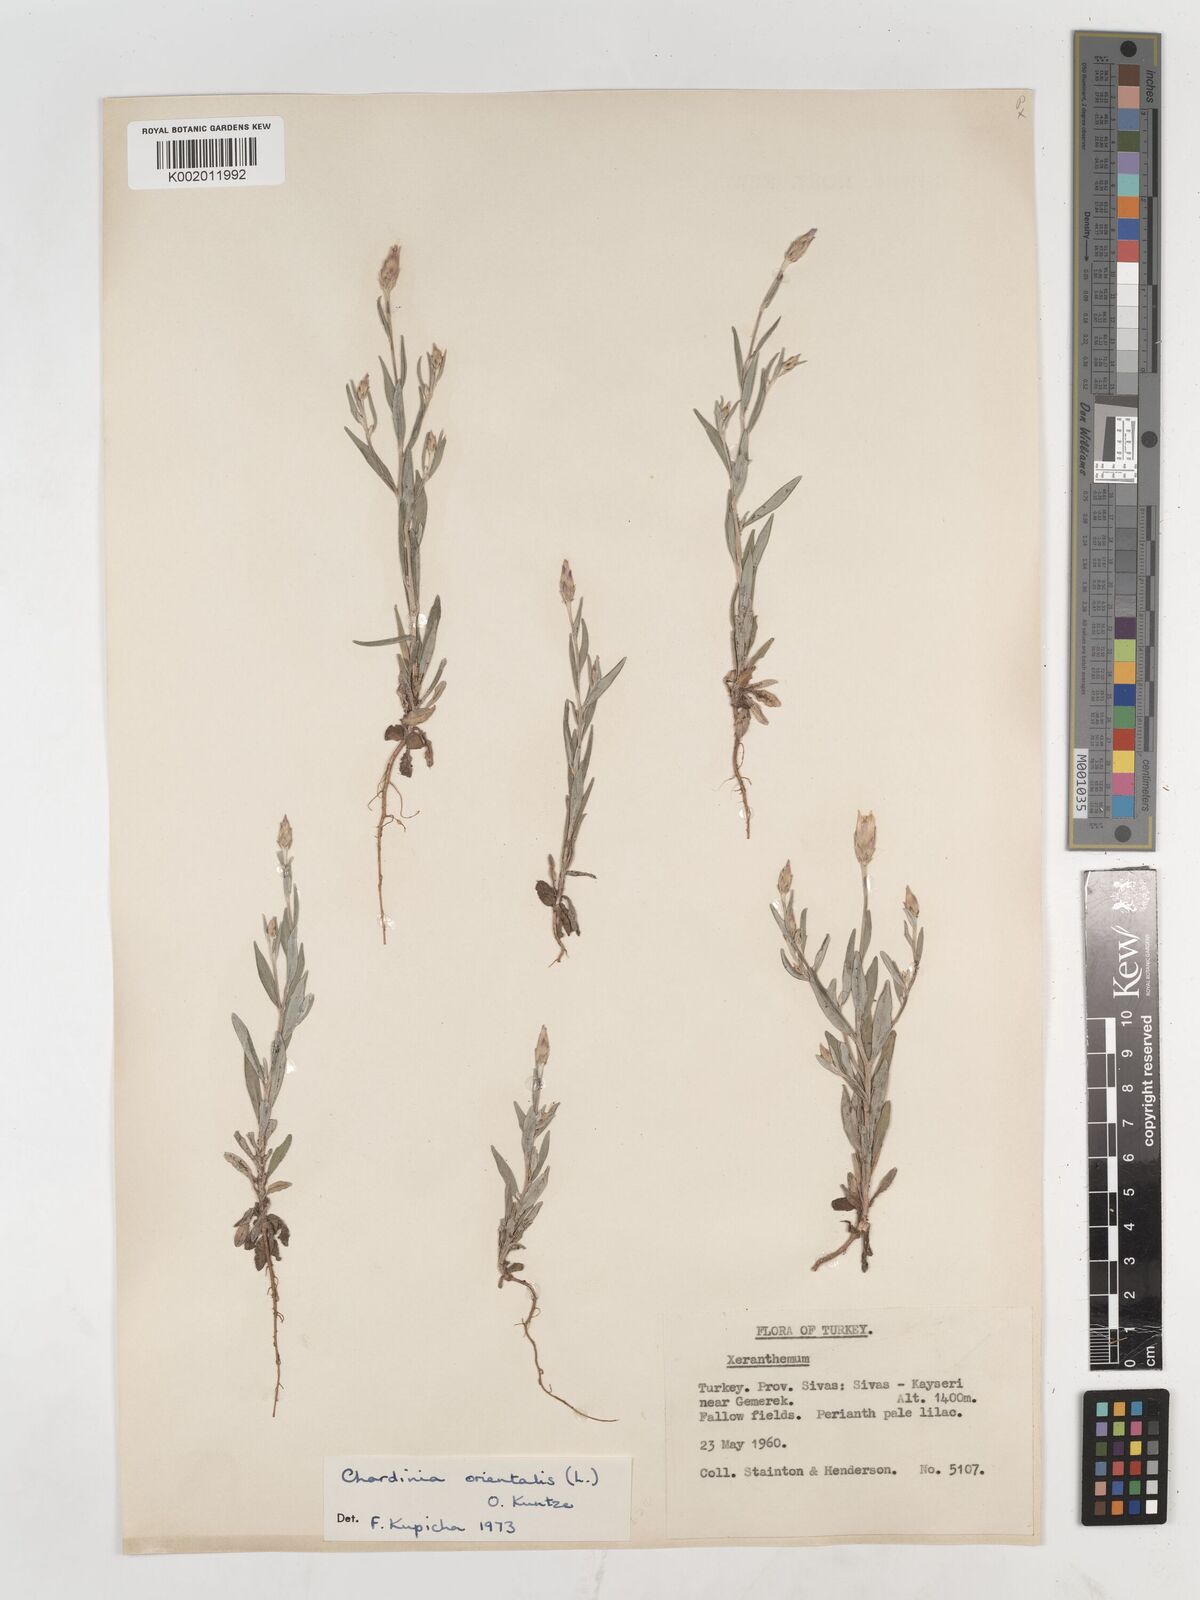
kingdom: Plantae
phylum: Tracheophyta
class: Magnoliopsida
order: Asterales
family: Asteraceae
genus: Chardinia
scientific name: Chardinia orientalis
